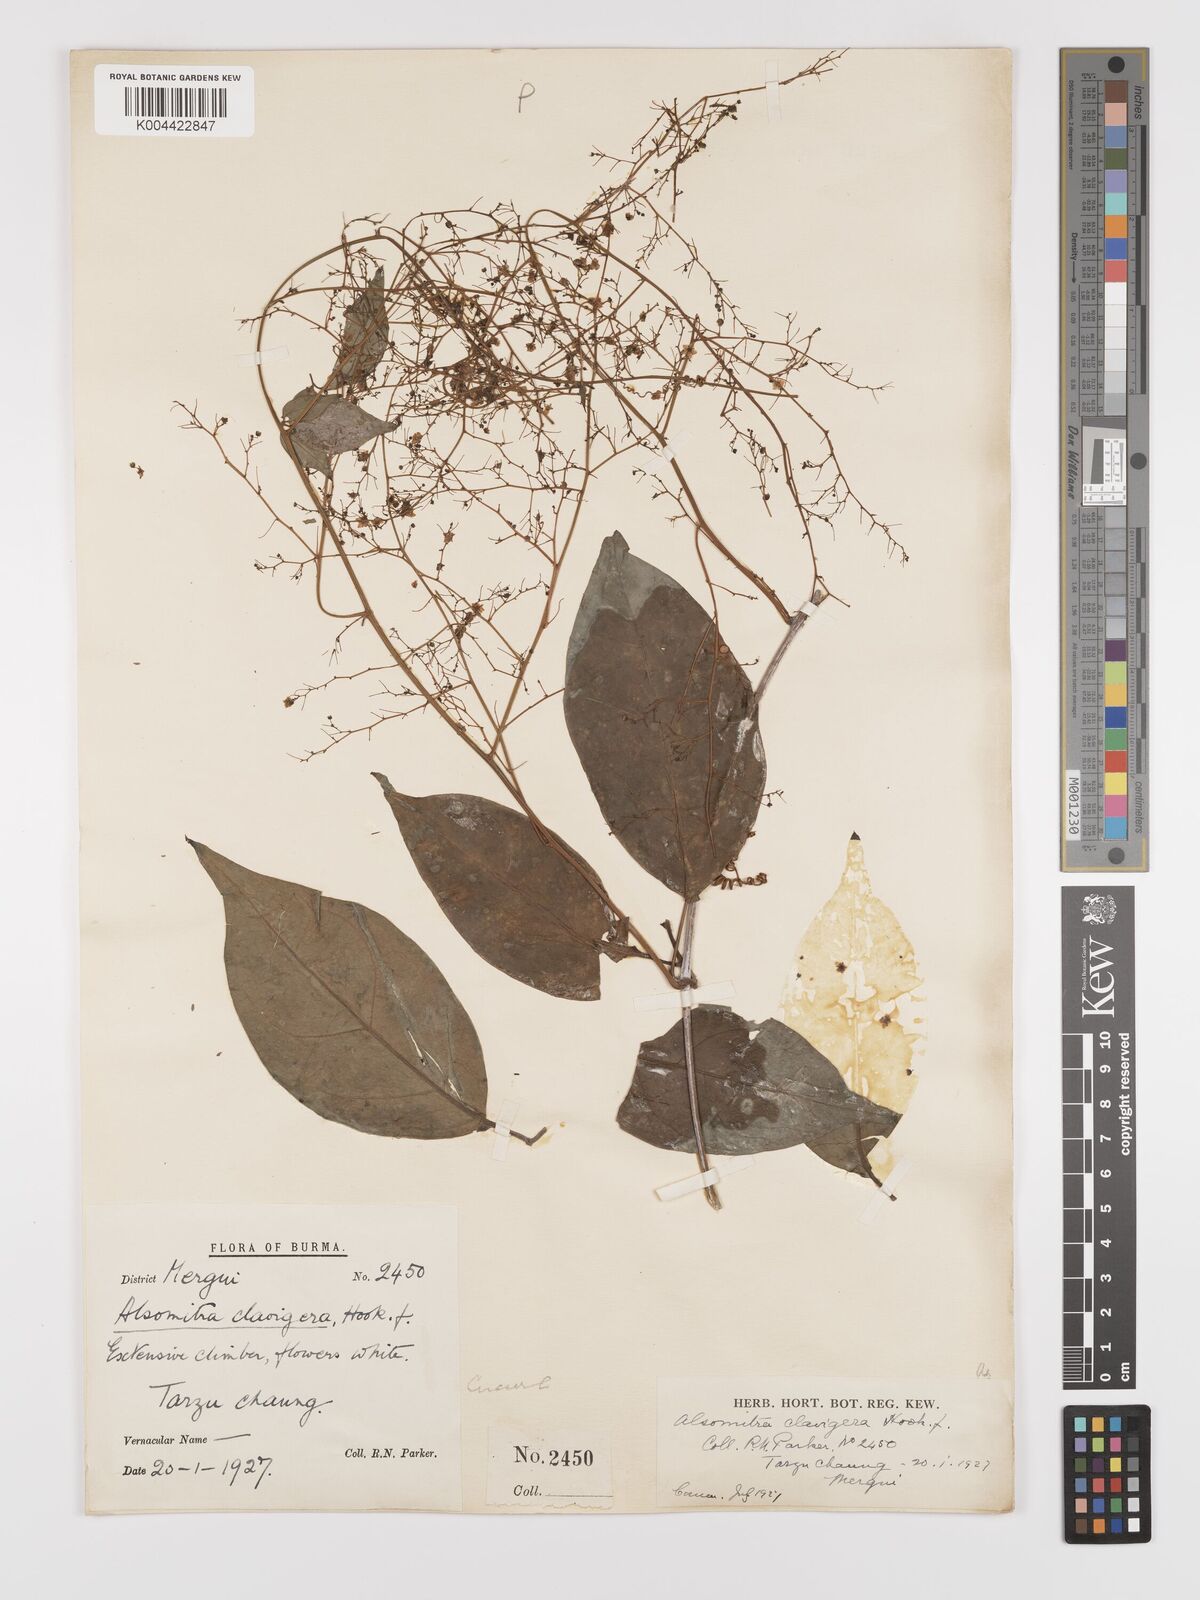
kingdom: Plantae
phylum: Tracheophyta
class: Magnoliopsida
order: Cucurbitales
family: Cucurbitaceae
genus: Neoalsomitra
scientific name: Neoalsomitra clavigera
